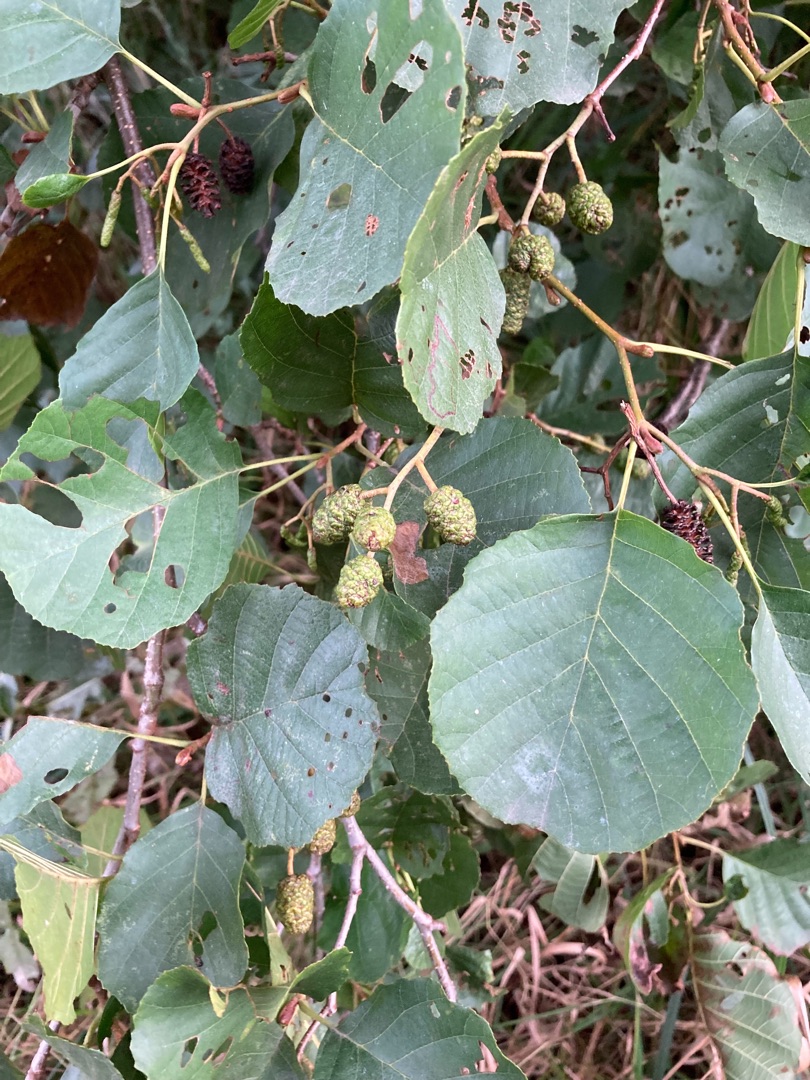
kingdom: Plantae
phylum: Tracheophyta
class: Magnoliopsida
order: Fagales
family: Betulaceae
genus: Alnus
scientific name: Alnus glutinosa
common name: Rød-el
